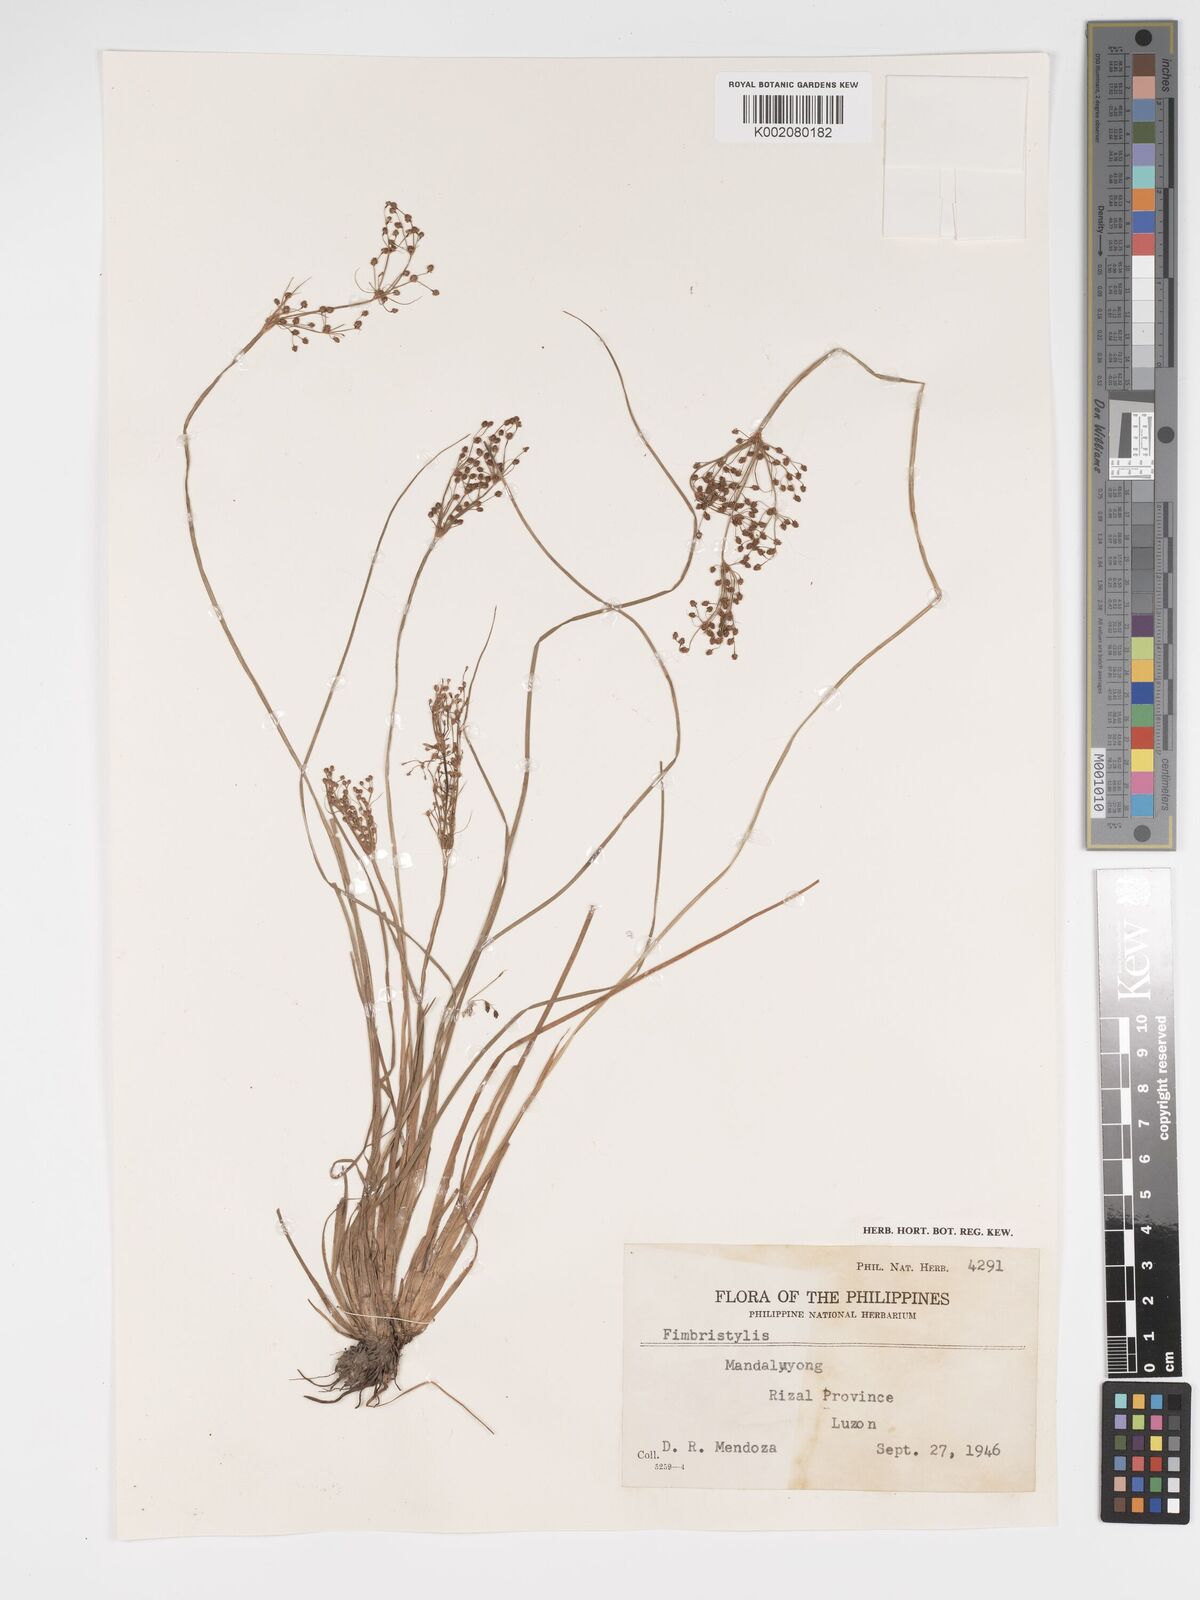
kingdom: Plantae
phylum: Tracheophyta
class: Liliopsida
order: Poales
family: Cyperaceae
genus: Fimbristylis
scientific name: Fimbristylis
